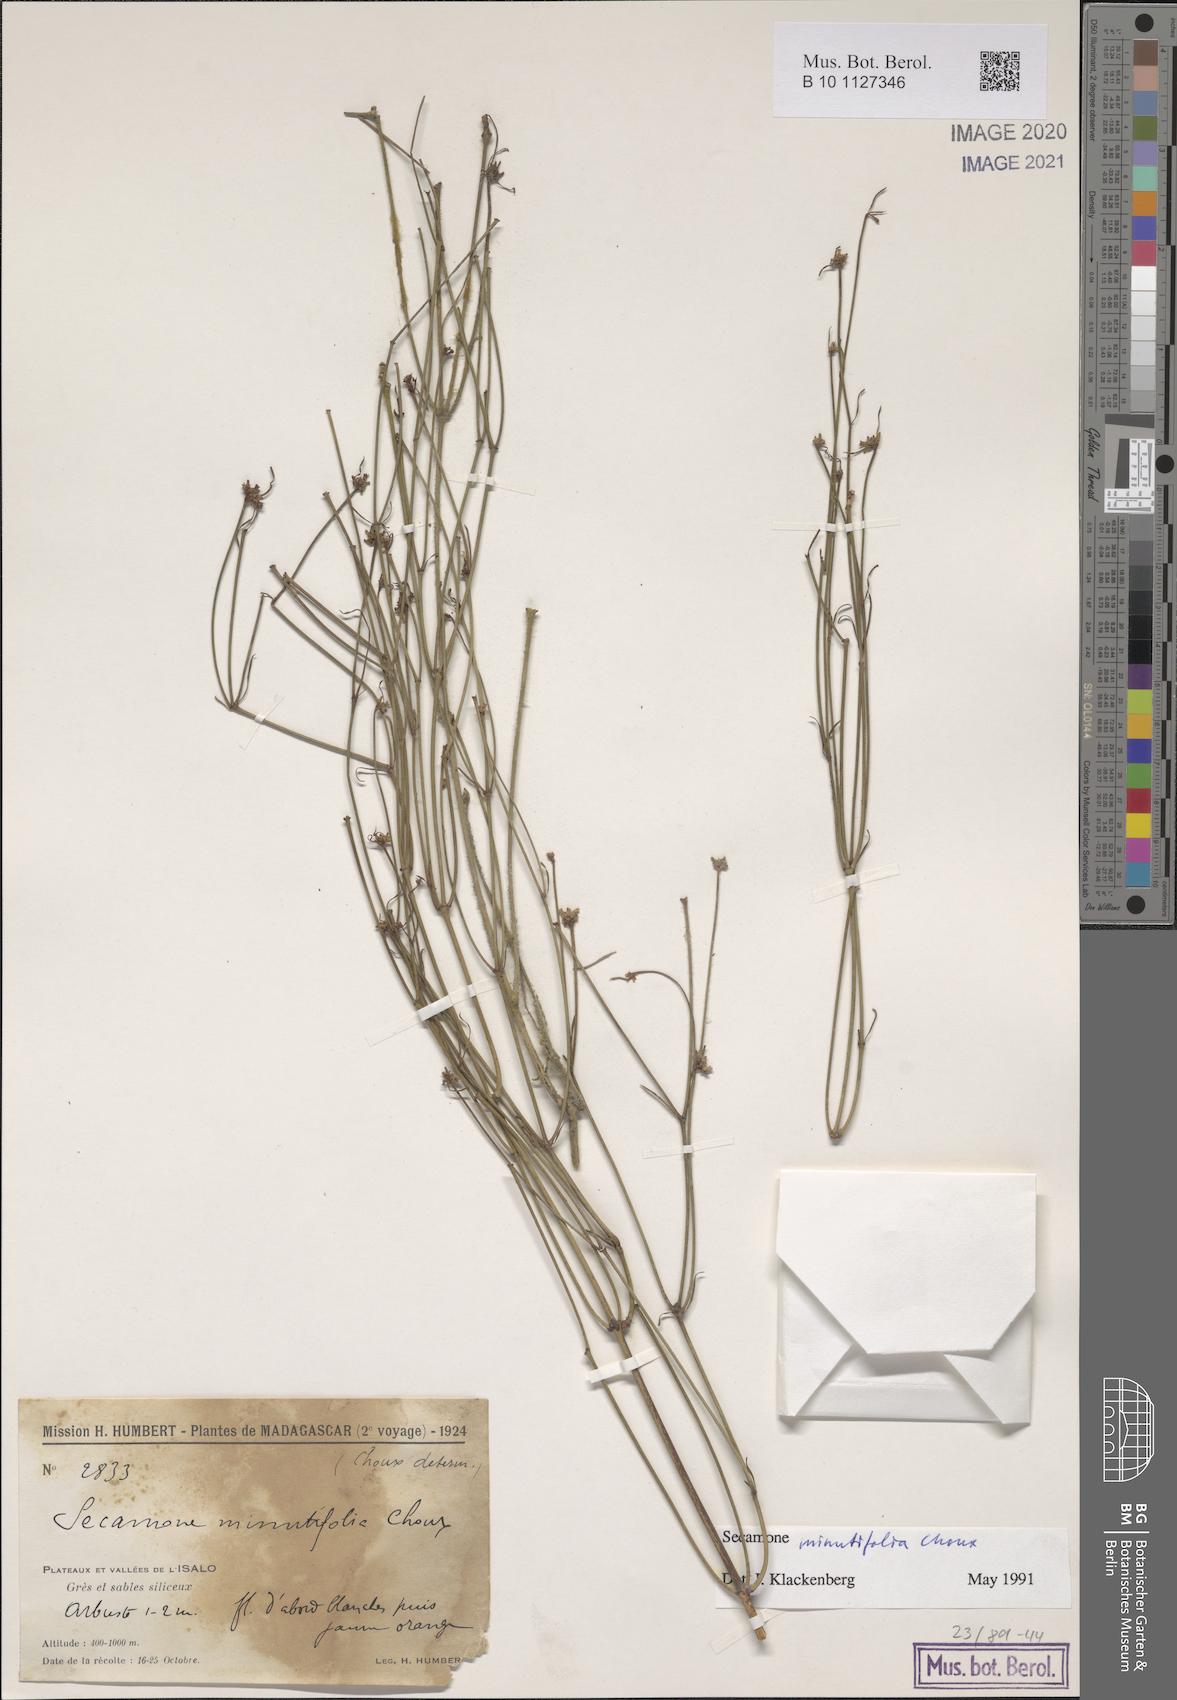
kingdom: Plantae
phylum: Tracheophyta
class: Magnoliopsida
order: Gentianales
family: Apocynaceae
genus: Secamone
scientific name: Secamone minutifolia
